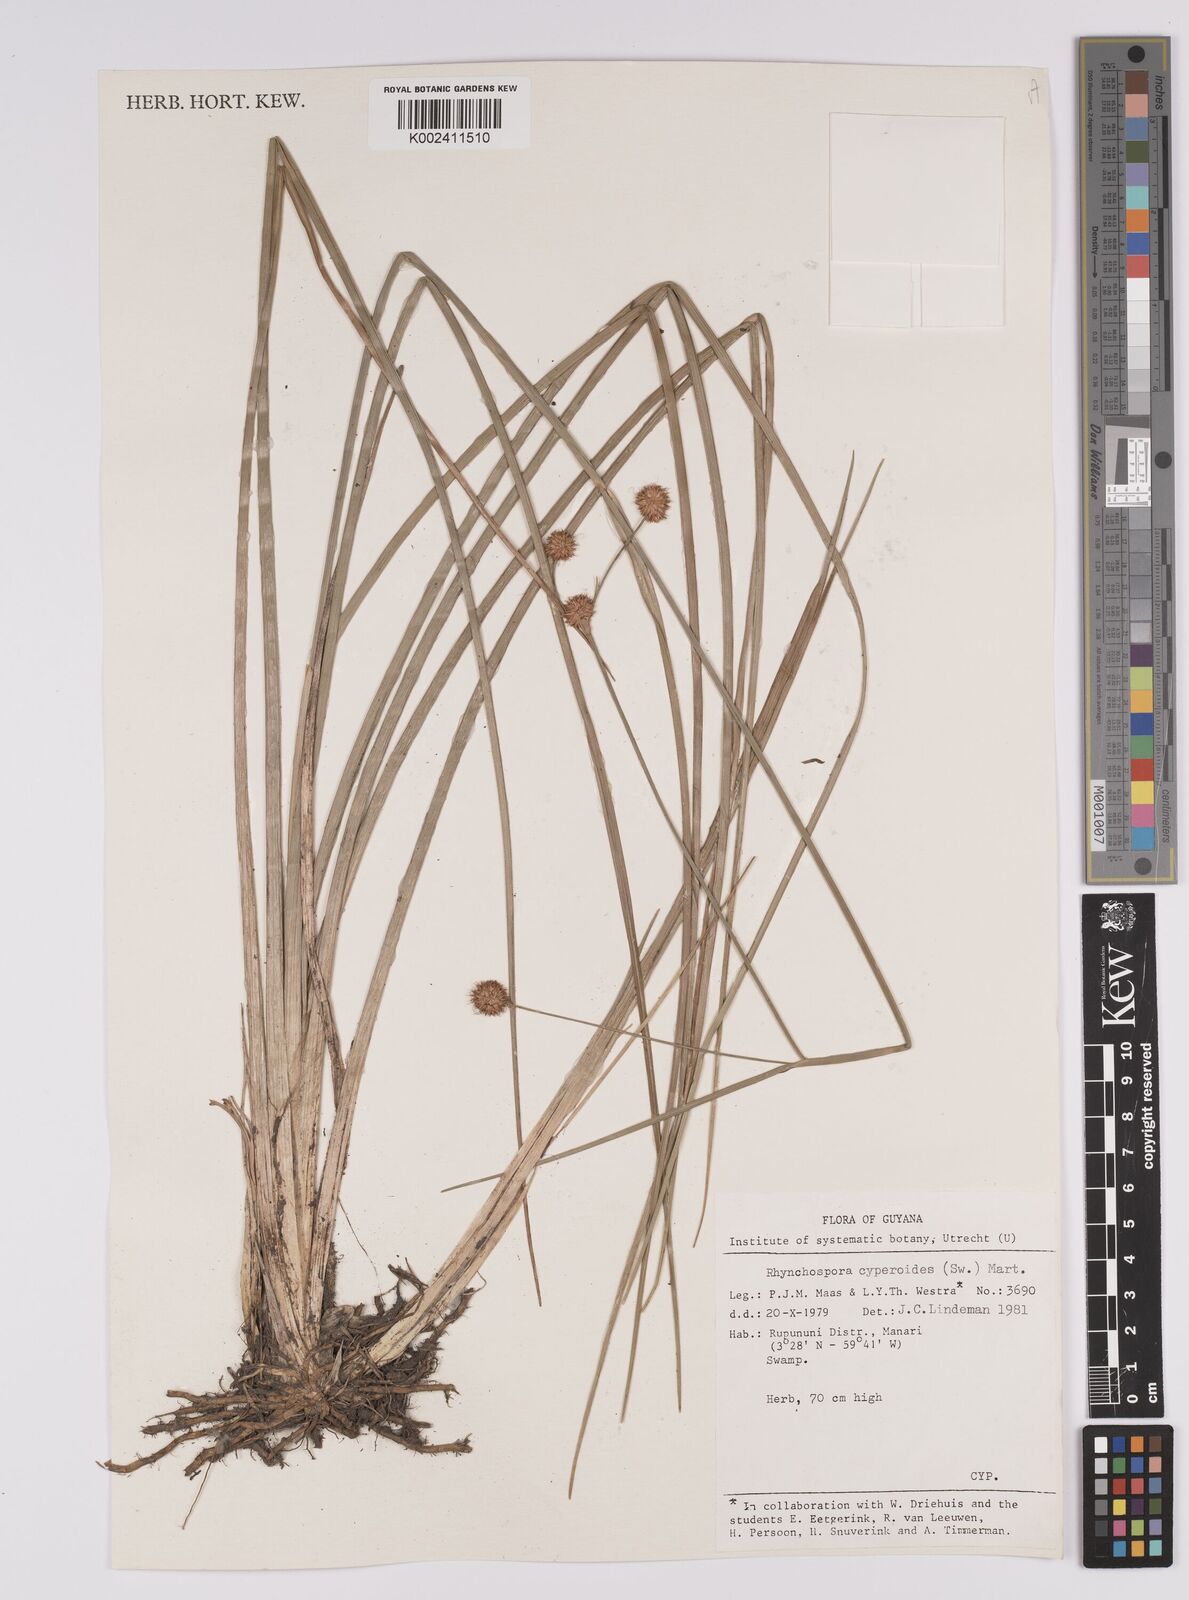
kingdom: Plantae
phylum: Tracheophyta
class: Liliopsida
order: Poales
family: Cyperaceae
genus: Rhynchospora
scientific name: Rhynchospora holoschoenoides
